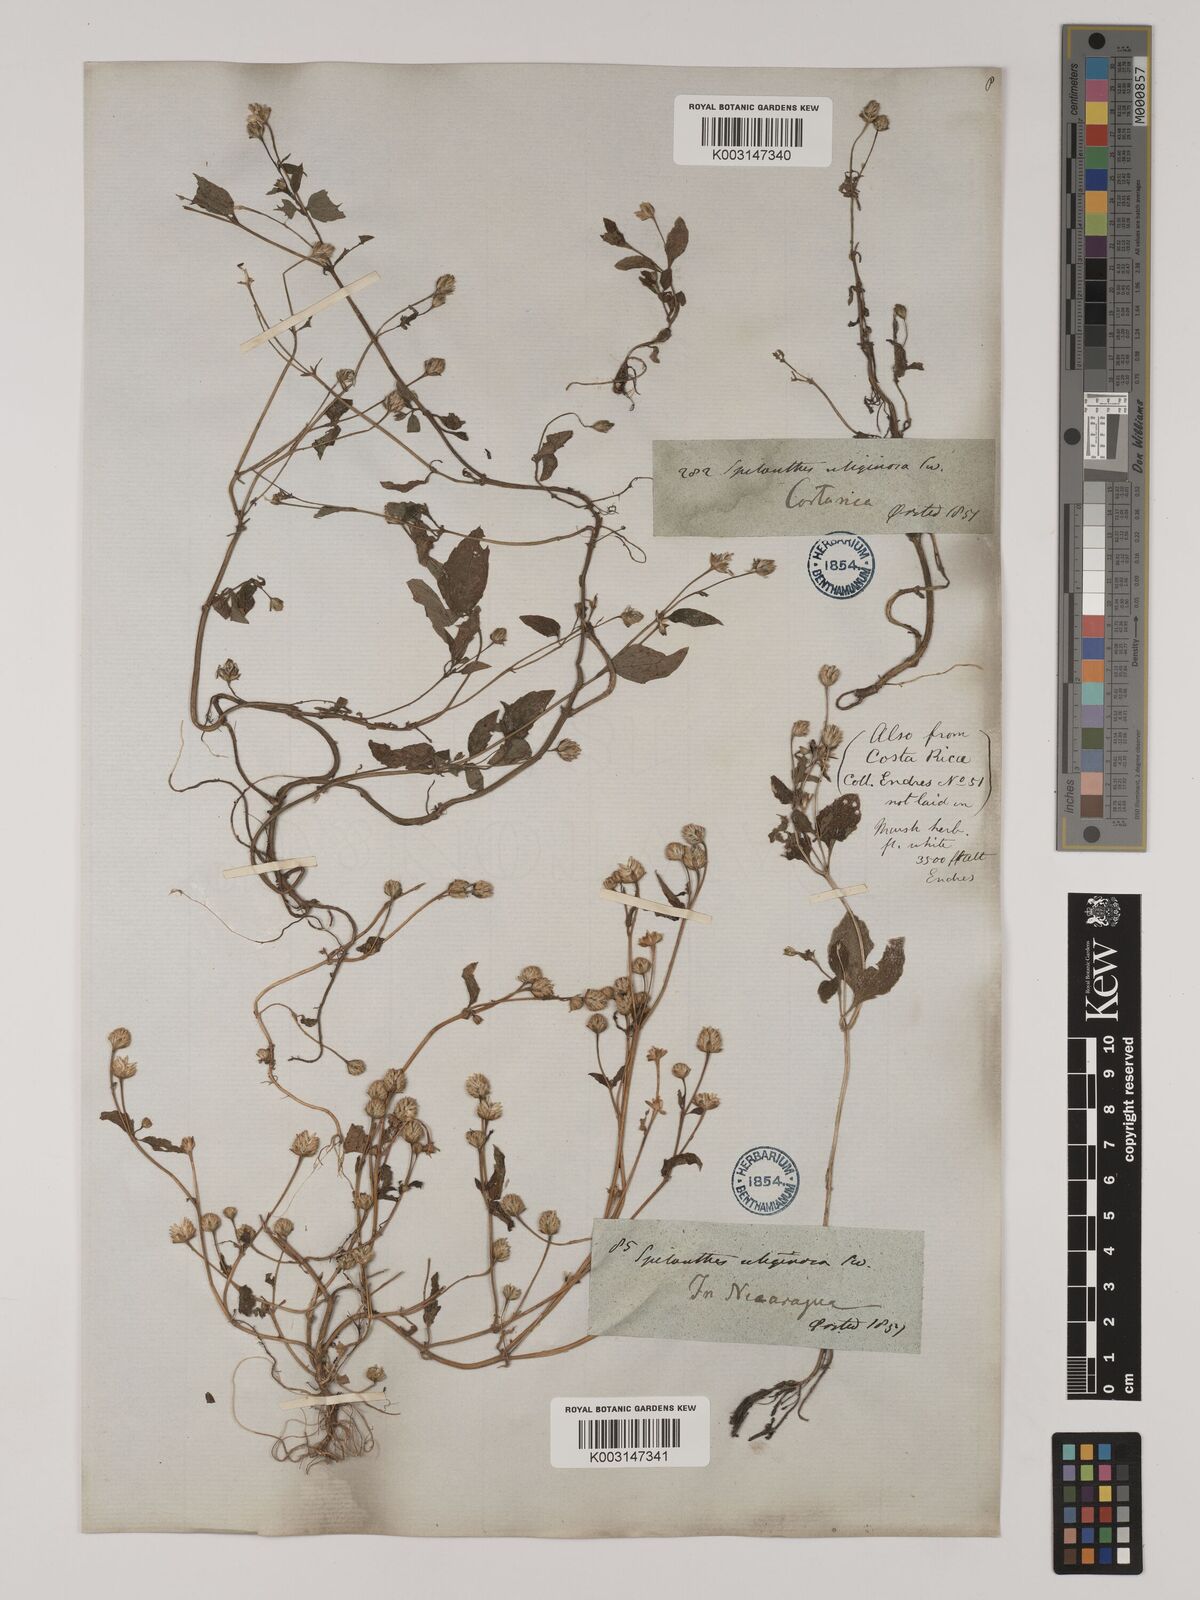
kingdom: Plantae
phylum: Tracheophyta
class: Magnoliopsida
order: Asterales
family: Asteraceae
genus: Acmella
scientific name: Acmella radicans
